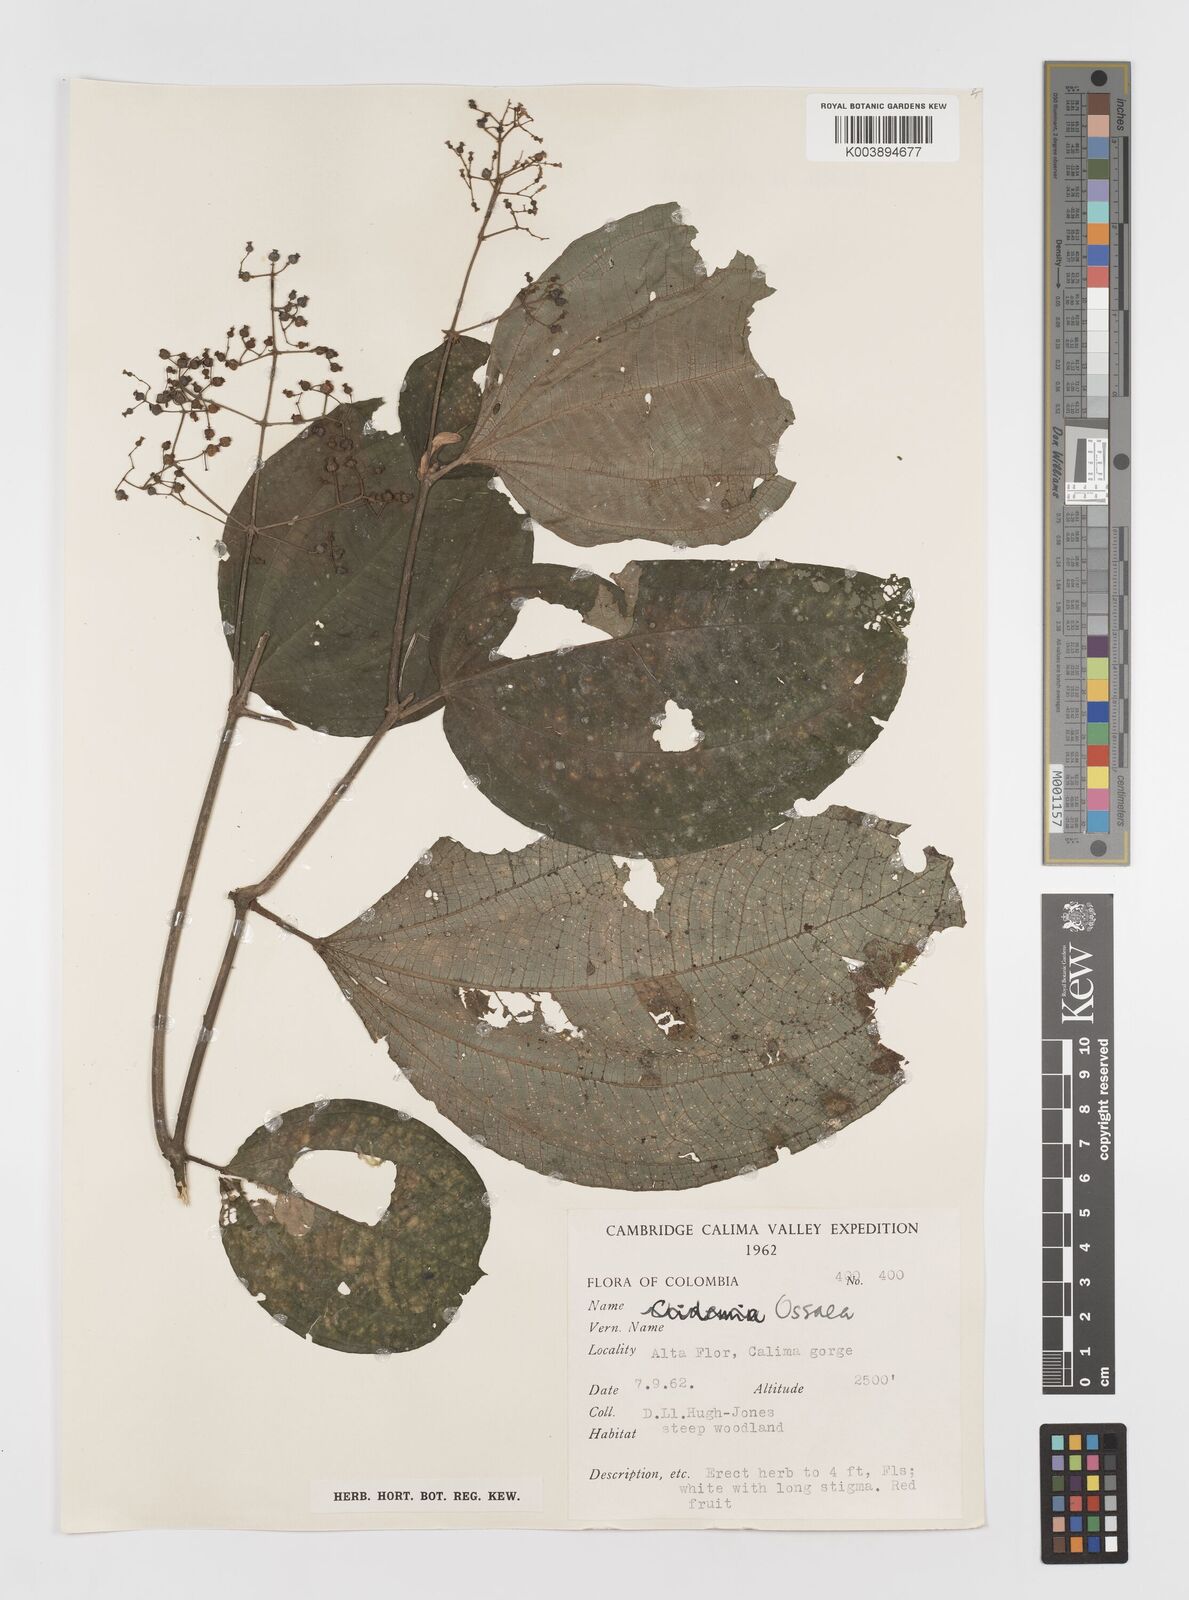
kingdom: Plantae
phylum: Tracheophyta
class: Magnoliopsida
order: Myrtales
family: Melastomataceae
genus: Ossaea
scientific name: Ossaea
